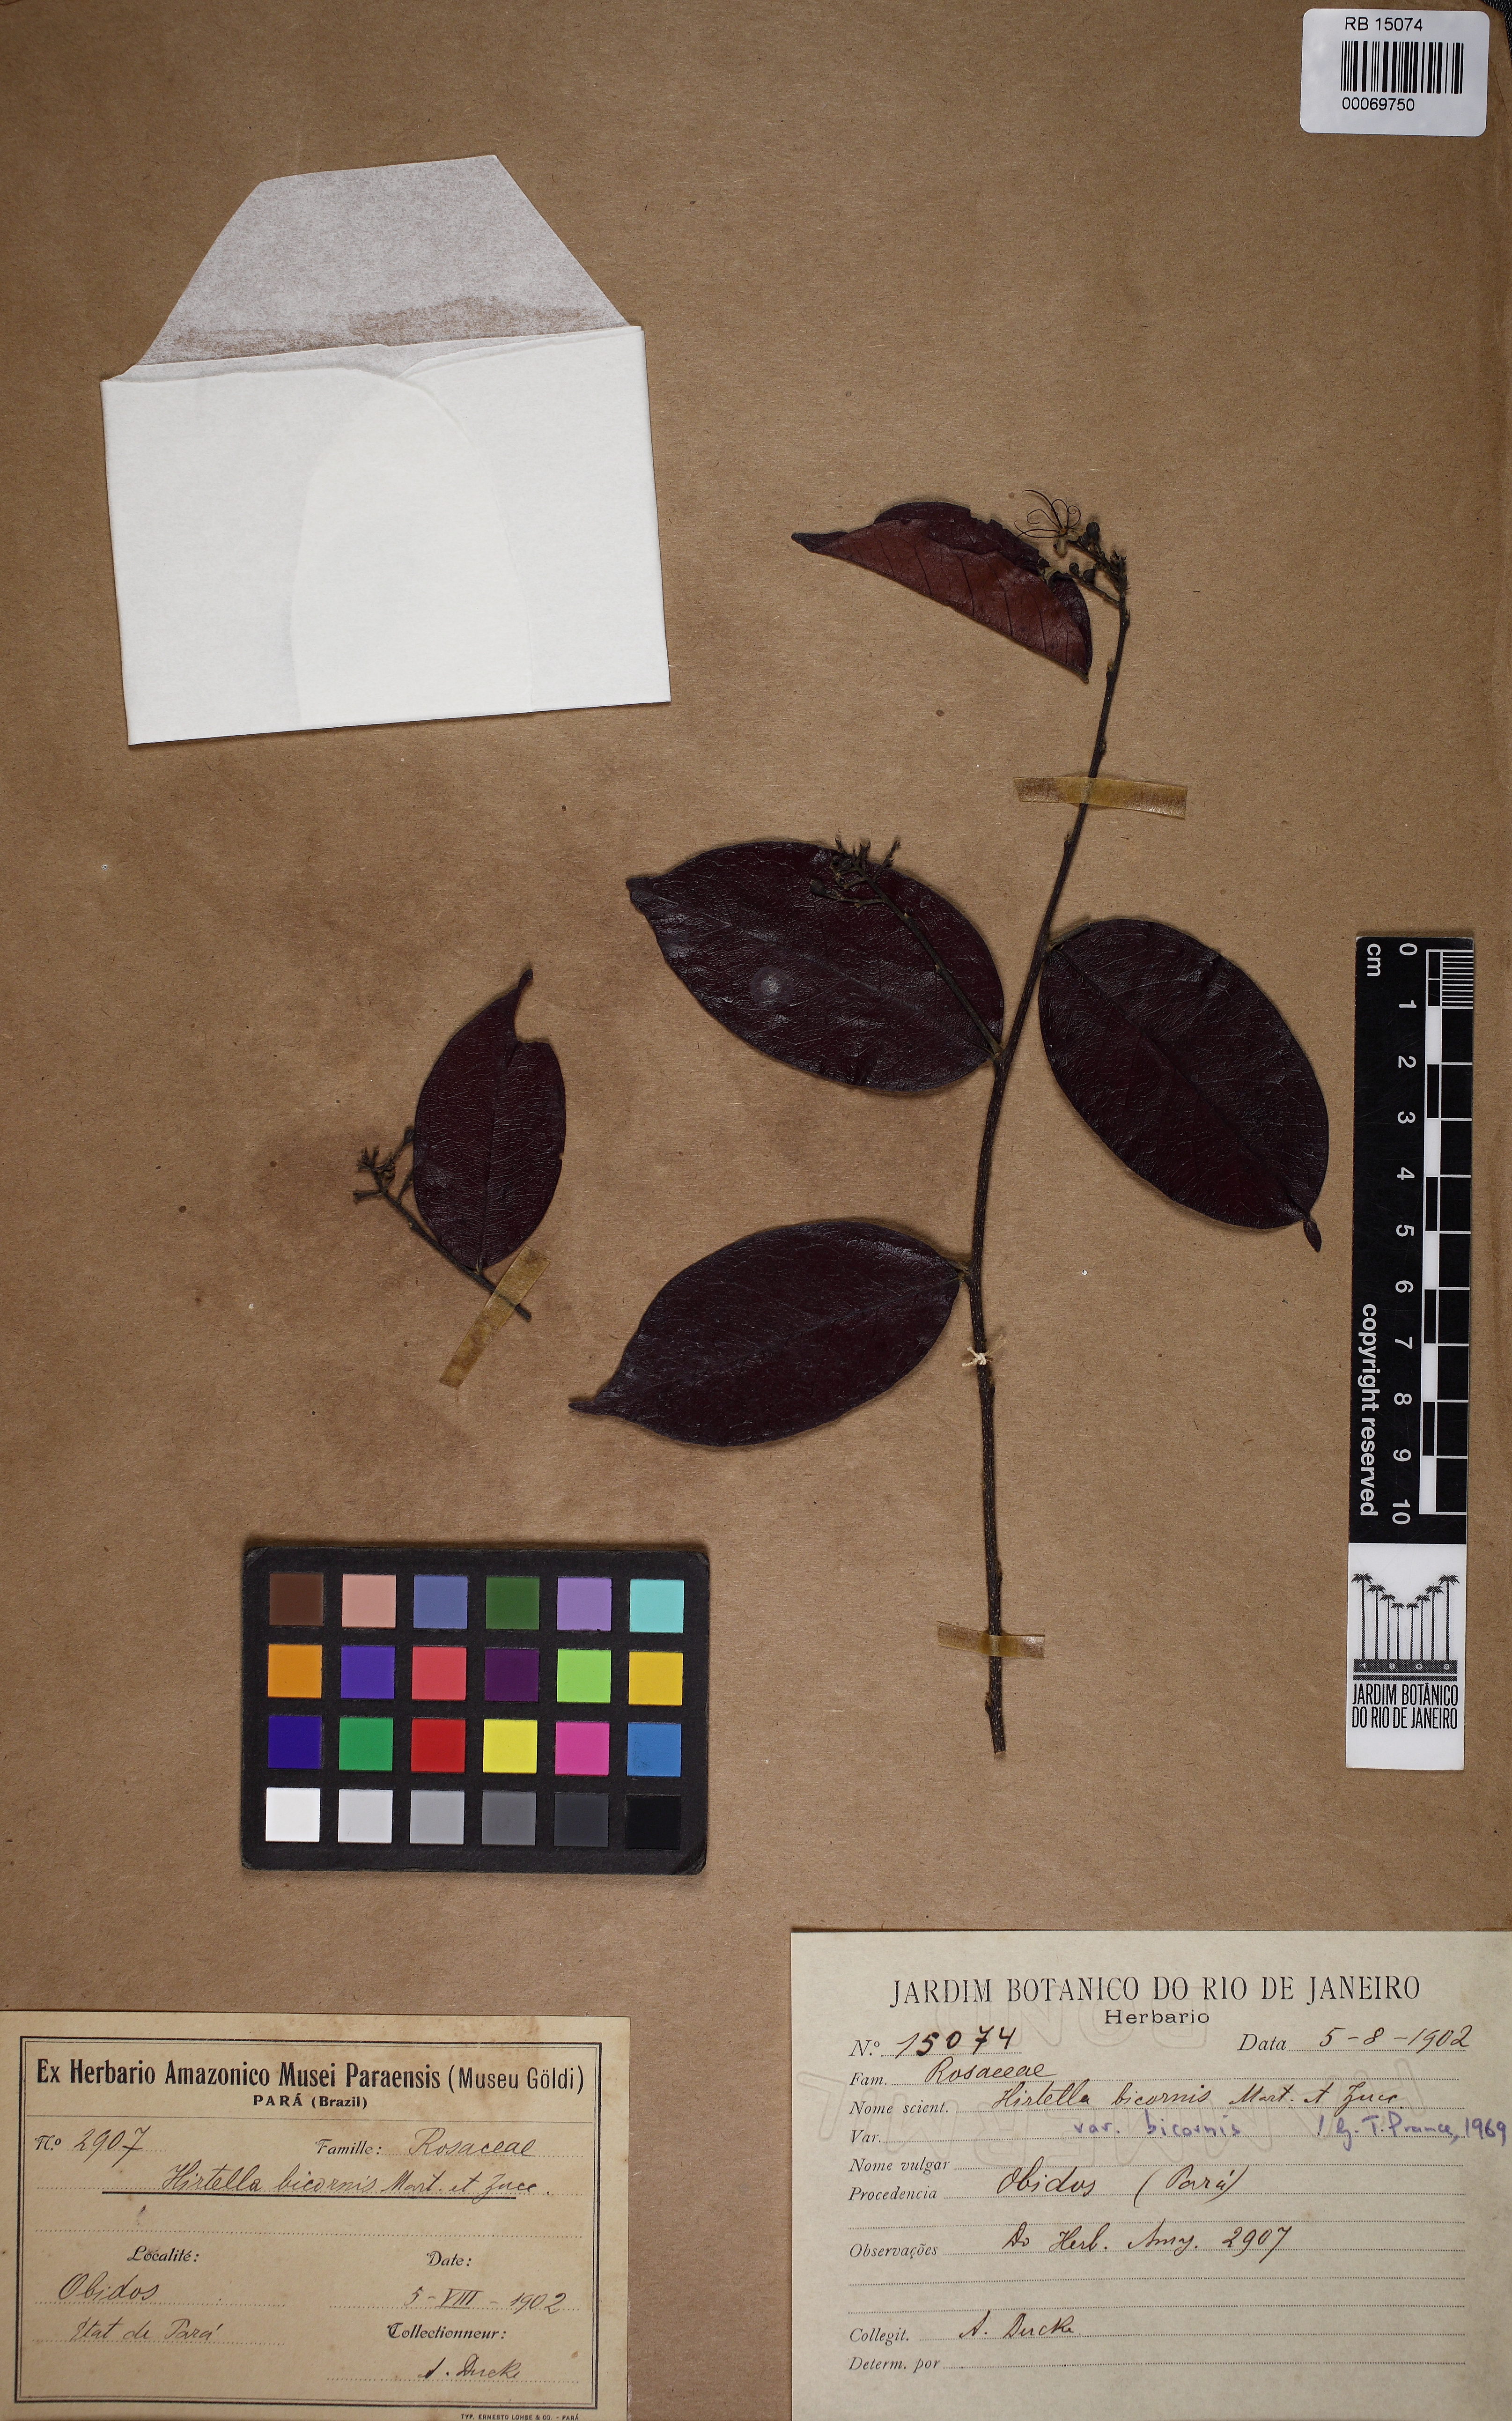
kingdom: Plantae
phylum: Tracheophyta
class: Magnoliopsida
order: Malpighiales
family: Chrysobalanaceae
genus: Hirtella
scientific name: Hirtella bicornis
